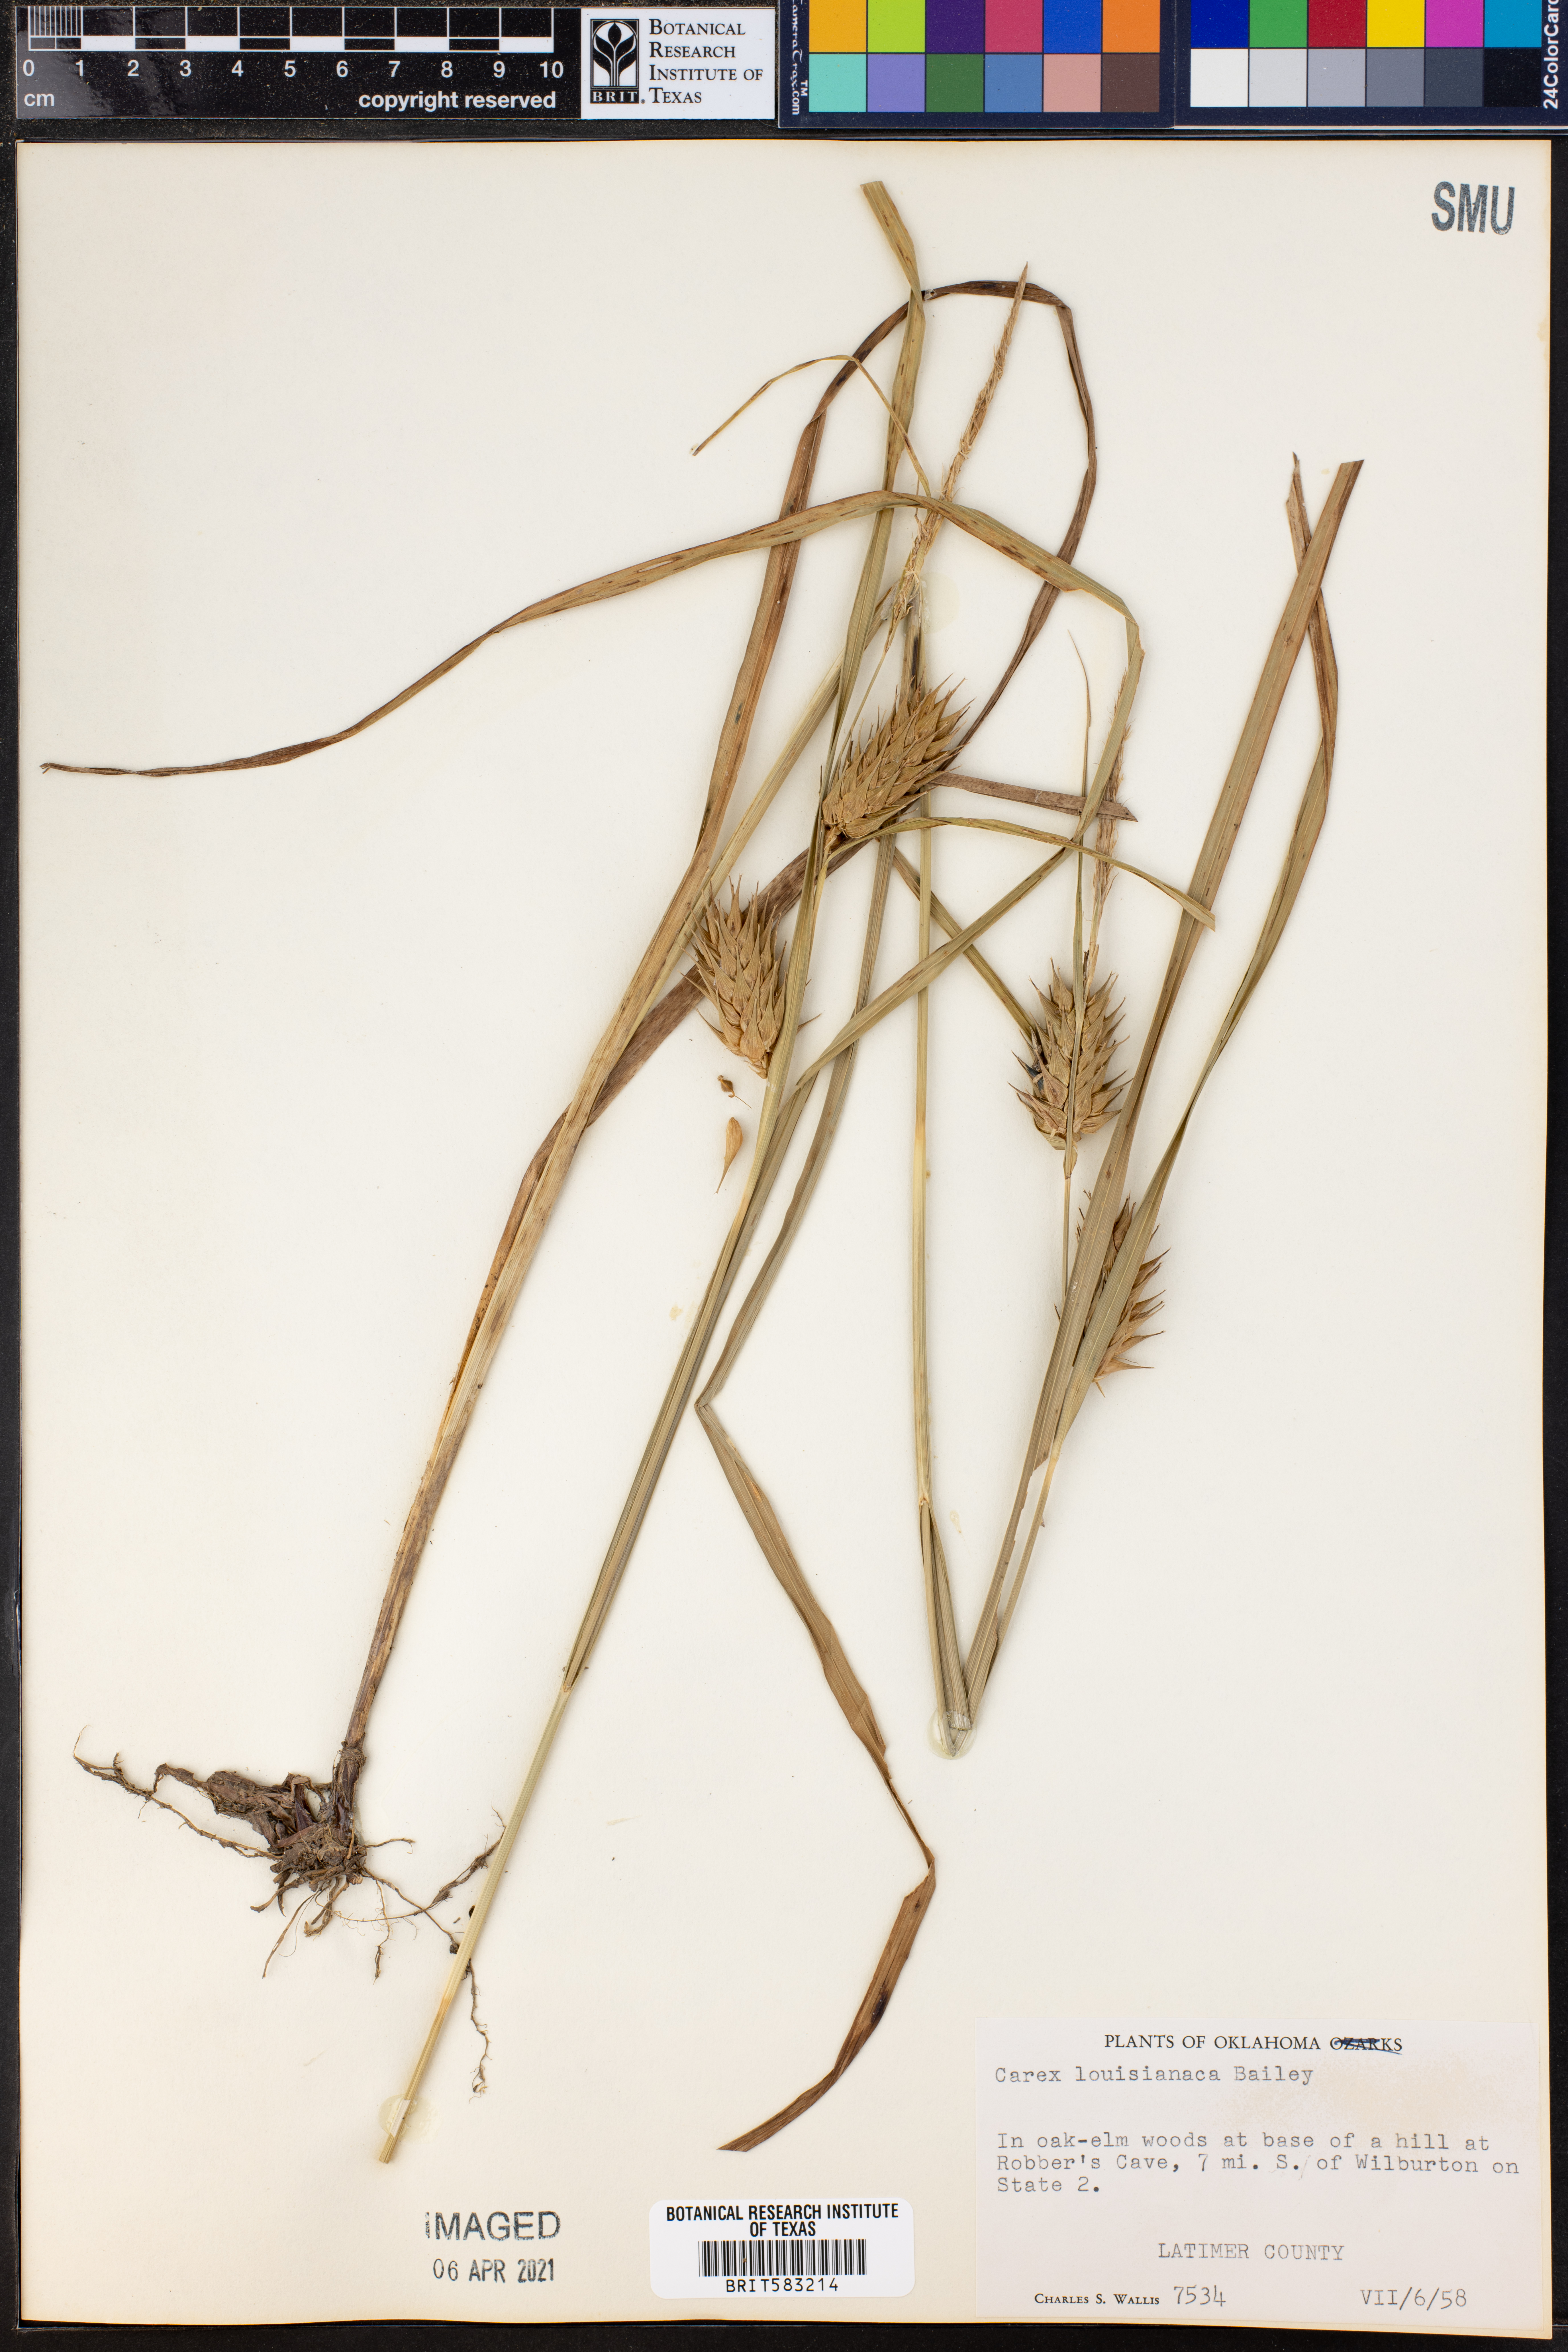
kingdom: Plantae
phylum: Tracheophyta
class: Liliopsida
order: Poales
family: Cyperaceae
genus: Carex
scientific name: Carex louisianica
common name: Louisiana sedge
